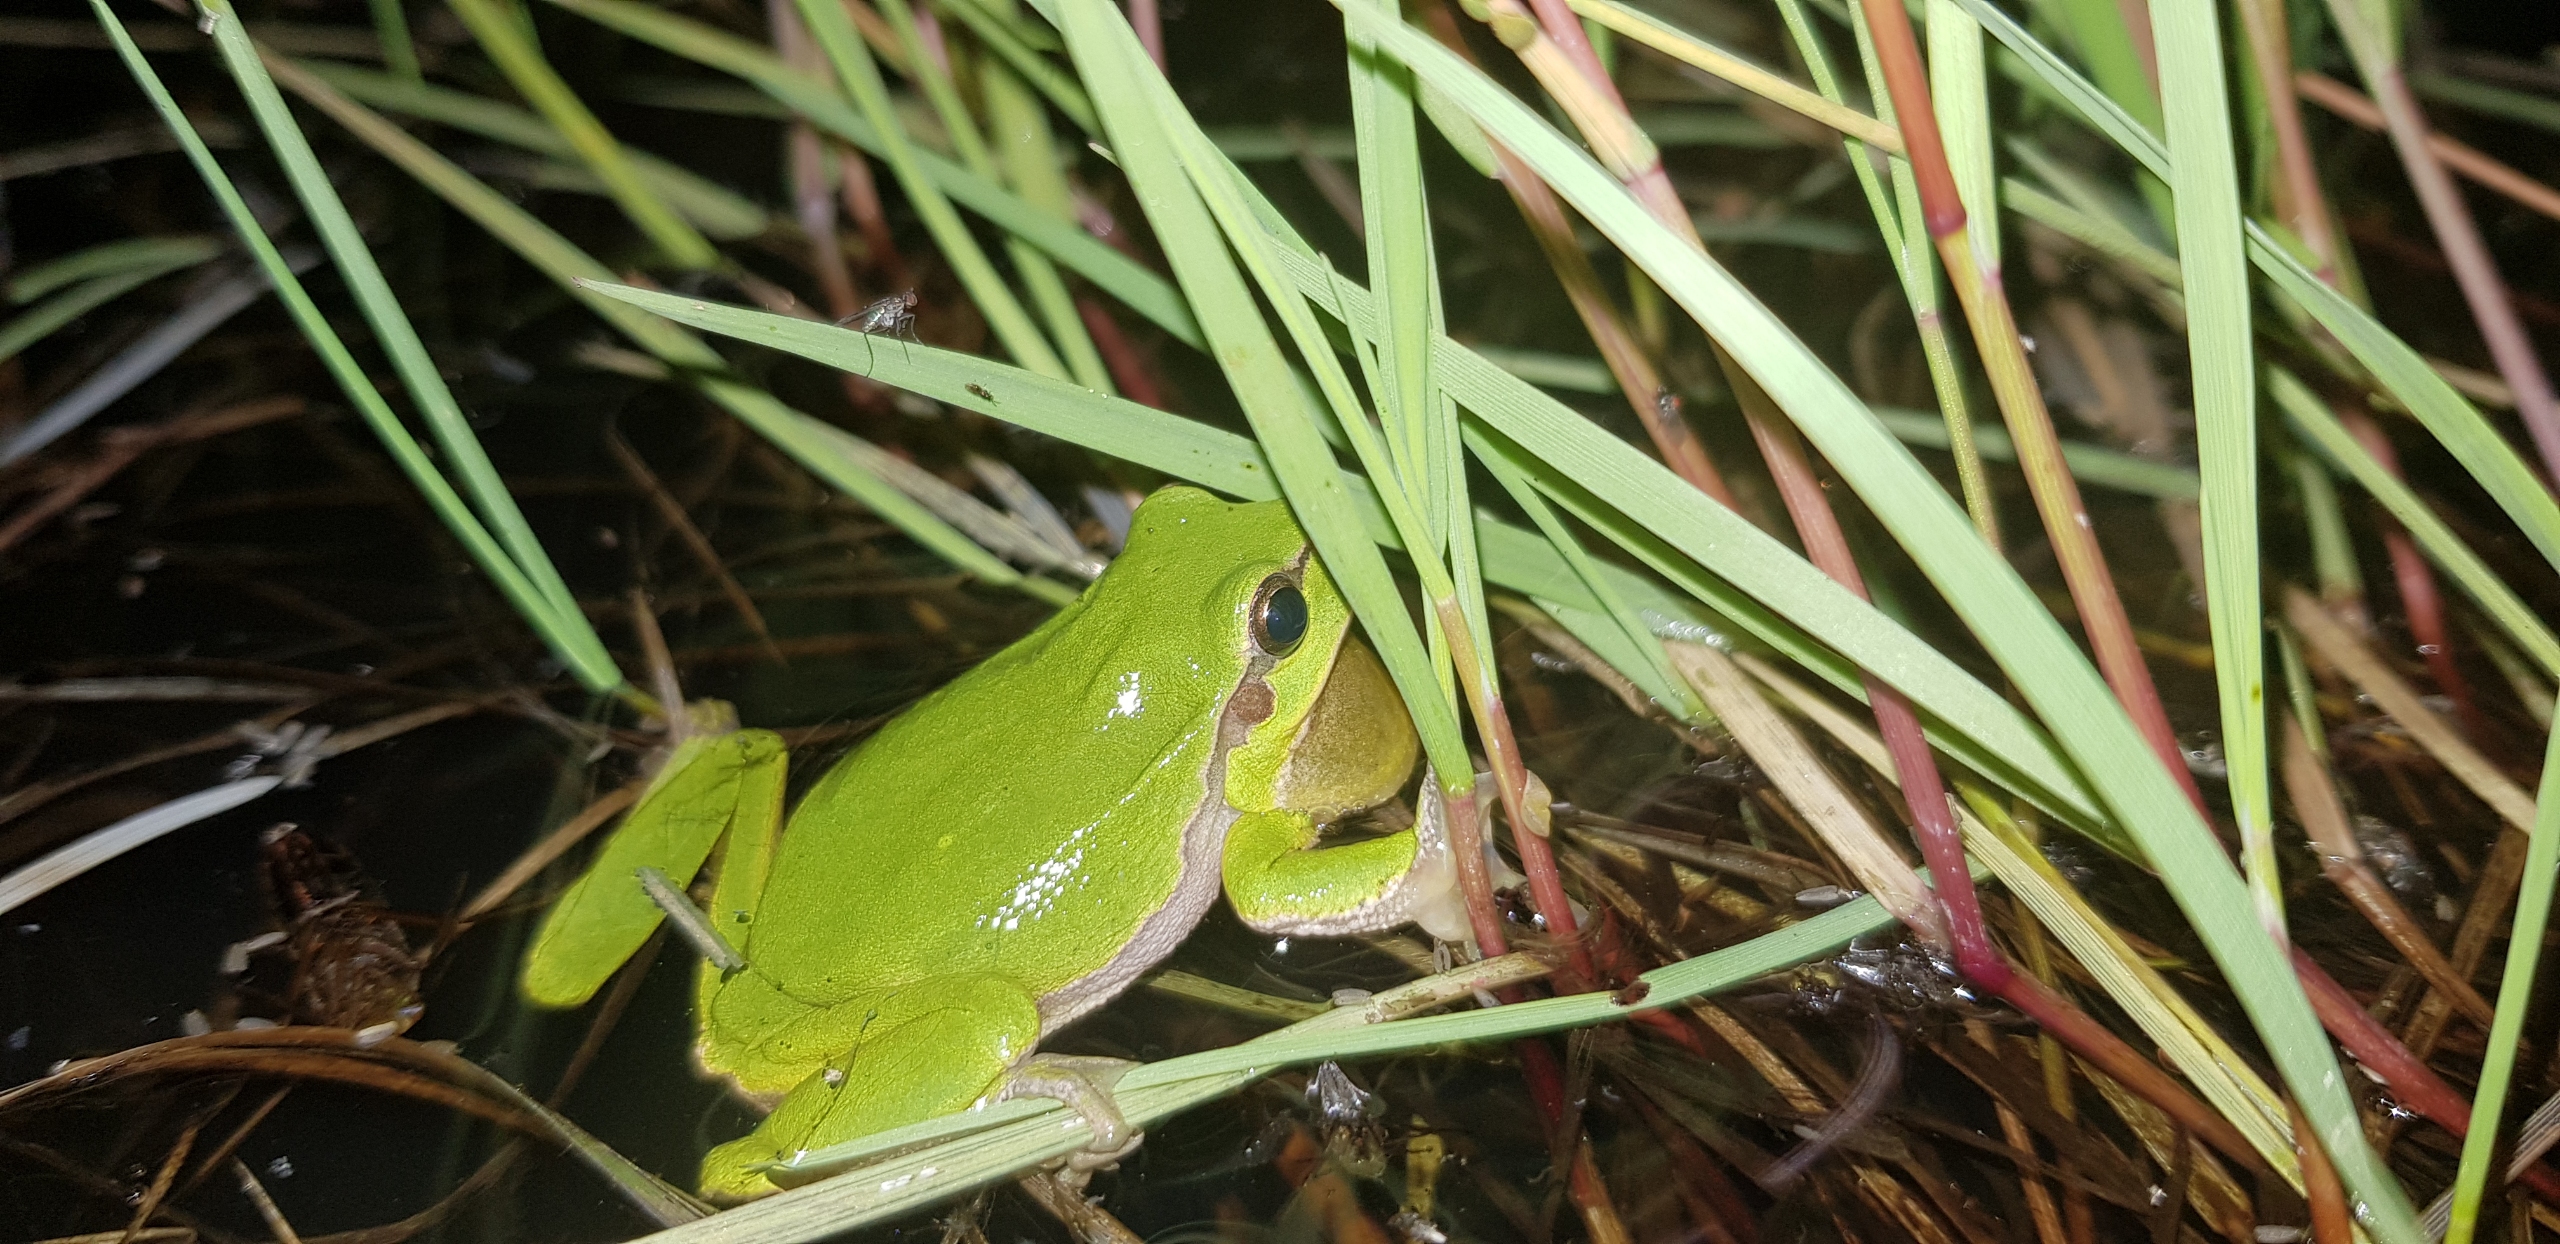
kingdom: Animalia
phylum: Chordata
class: Amphibia
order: Anura
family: Hylidae
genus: Hyla
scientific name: Hyla arborea
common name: Løvfrø
